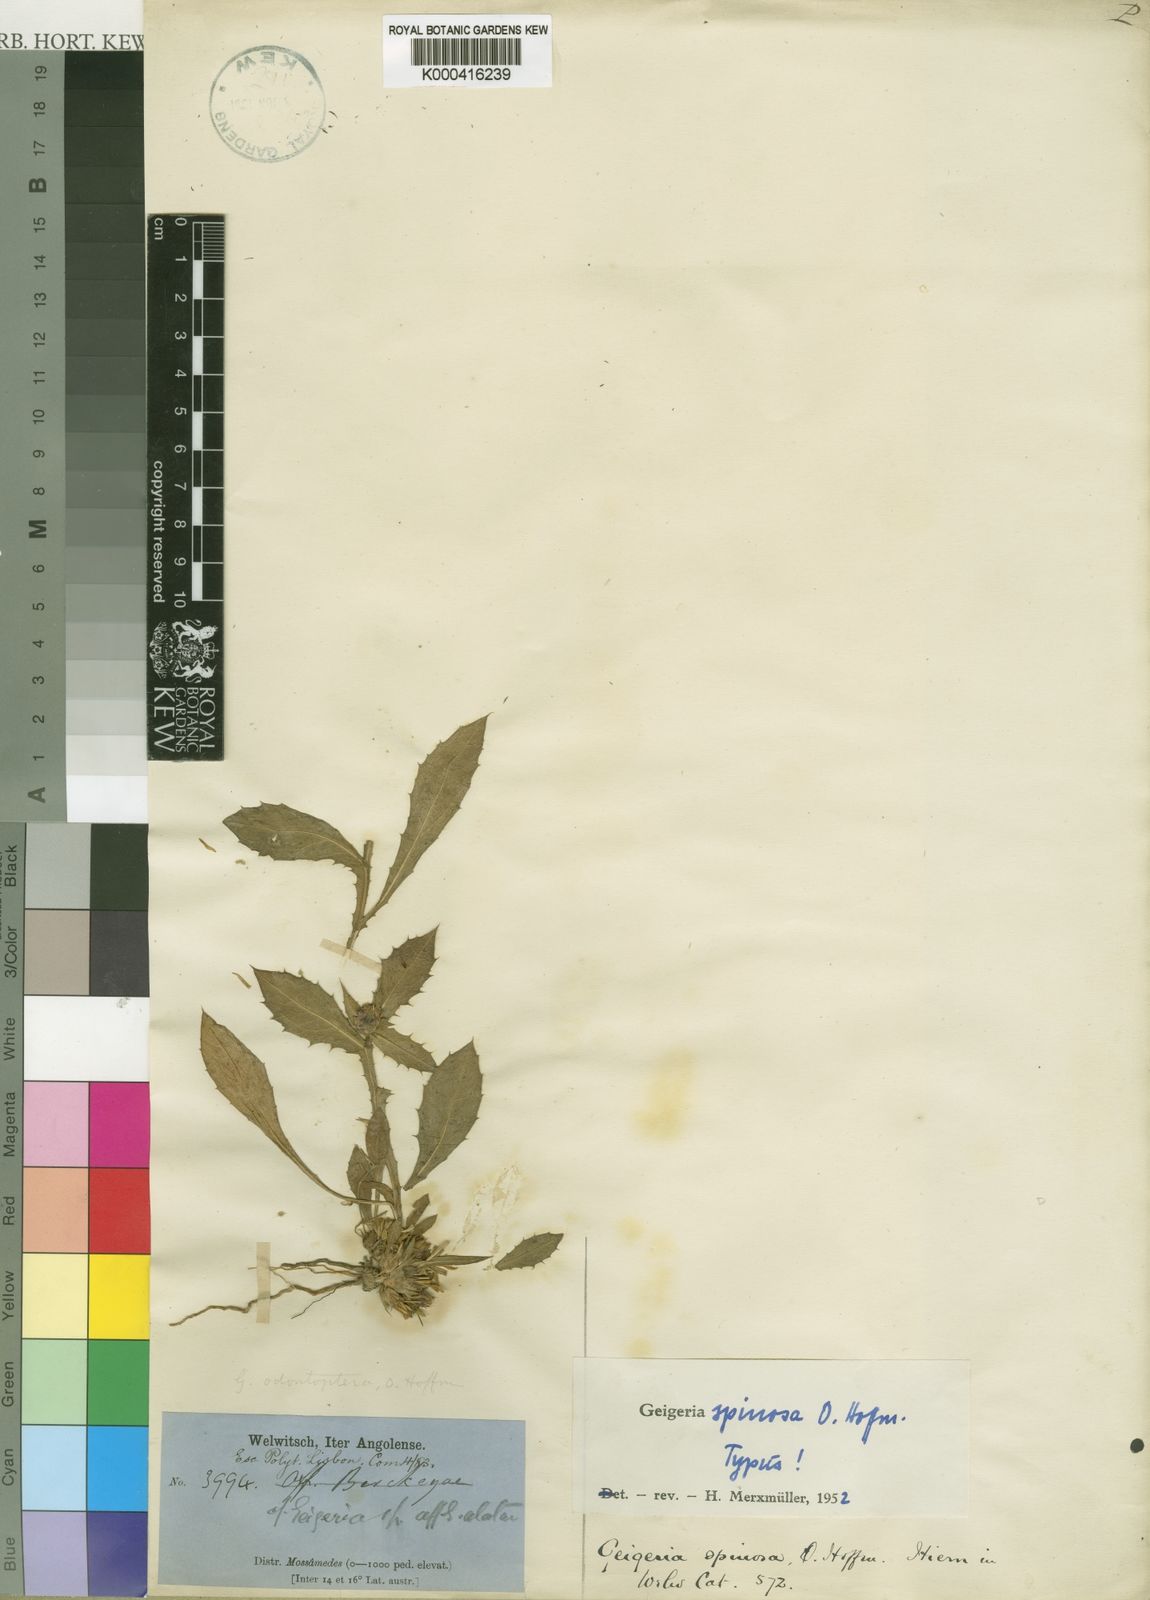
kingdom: Plantae
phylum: Tracheophyta
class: Magnoliopsida
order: Asterales
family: Asteraceae
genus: Geigeria
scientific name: Geigeria spinosa
